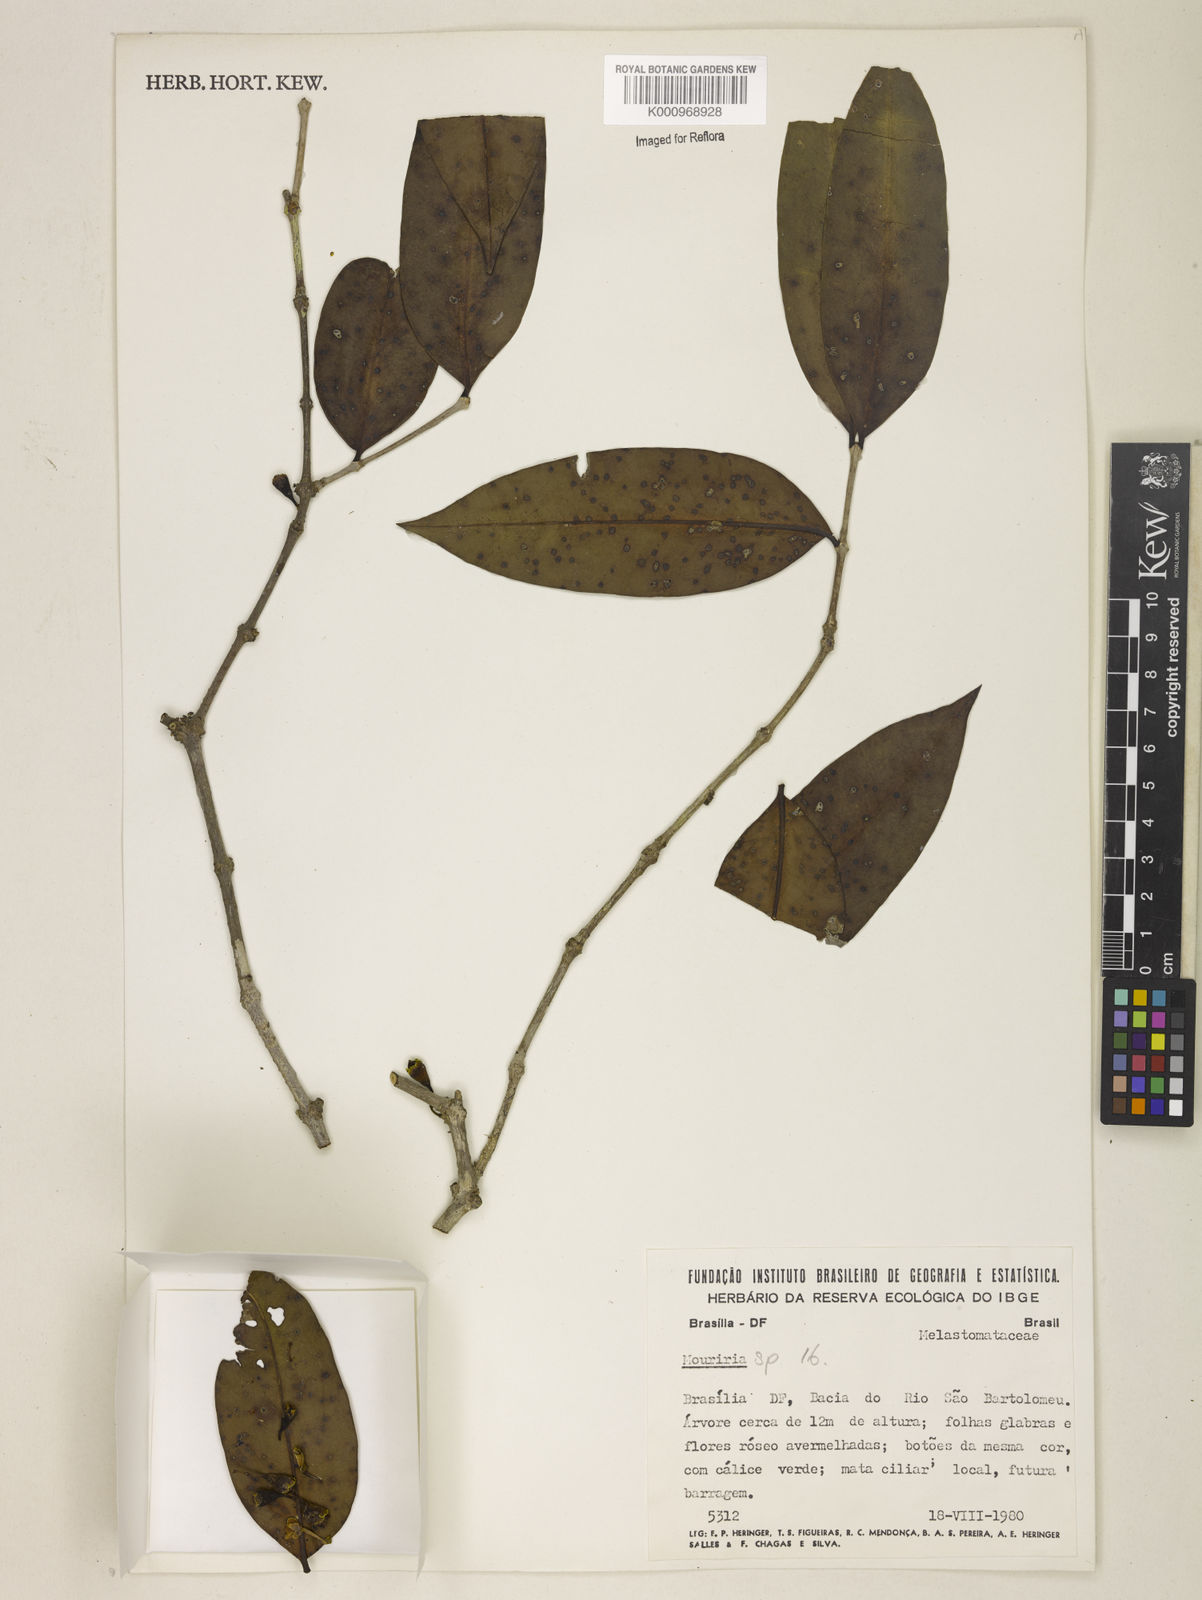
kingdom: Plantae
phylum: Tracheophyta
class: Magnoliopsida
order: Myrtales
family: Melastomataceae
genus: Mouriri
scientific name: Mouriri
